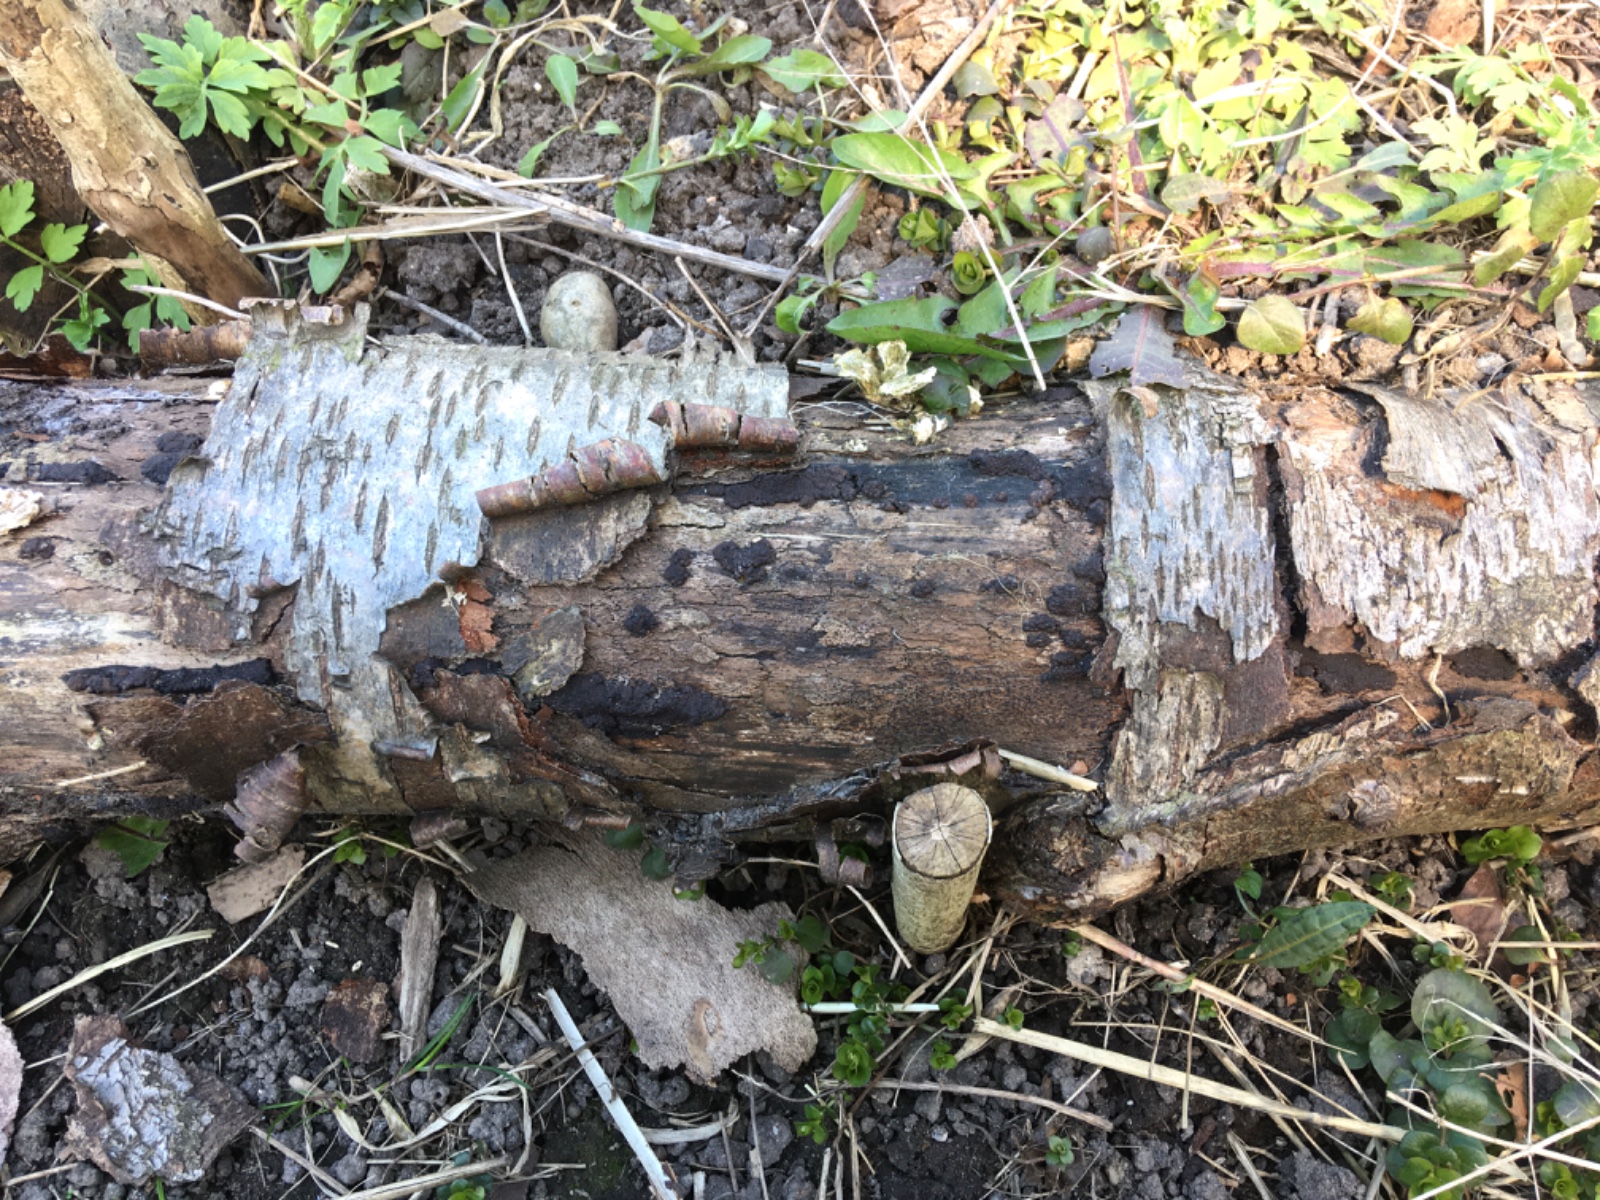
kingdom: Fungi
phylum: Ascomycota
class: Sordariomycetes
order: Xylariales
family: Hypoxylaceae
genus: Jackrogersella
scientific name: Jackrogersella multiformis
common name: foranderlig kulbær
